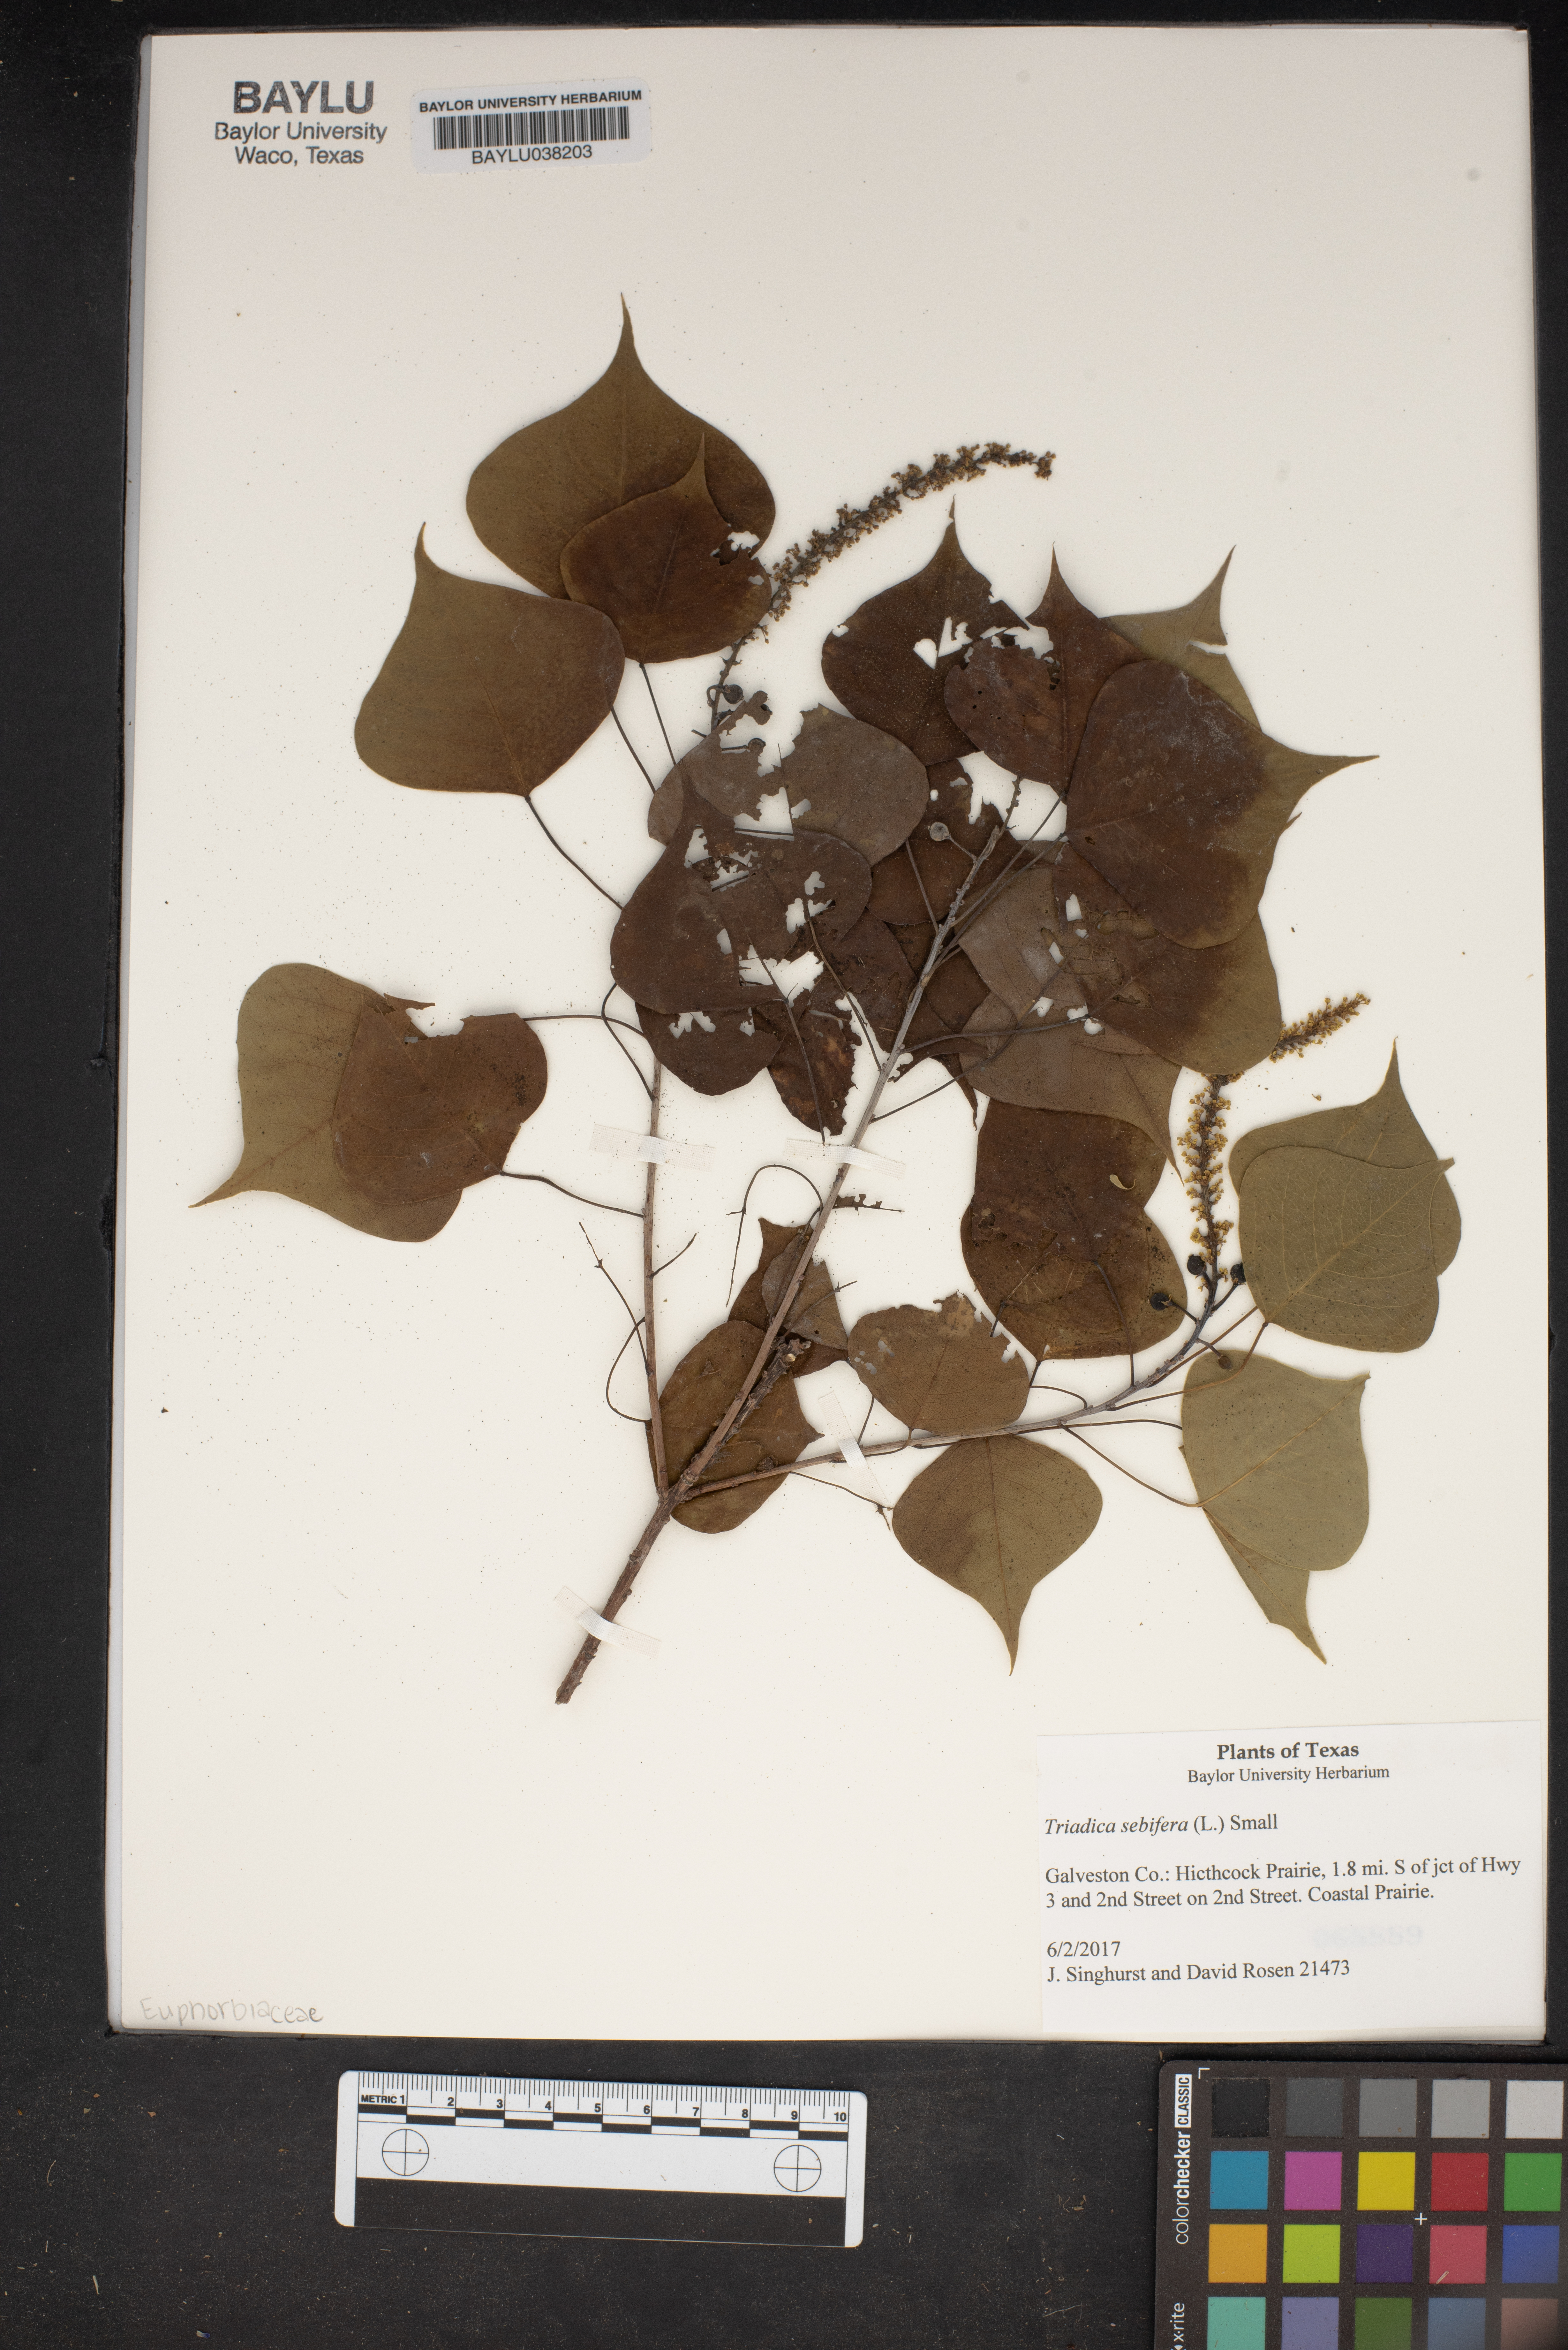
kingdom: Plantae
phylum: Tracheophyta
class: Magnoliopsida
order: Malpighiales
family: Euphorbiaceae
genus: Triadica
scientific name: Triadica sebifera
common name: Chinese tallow
